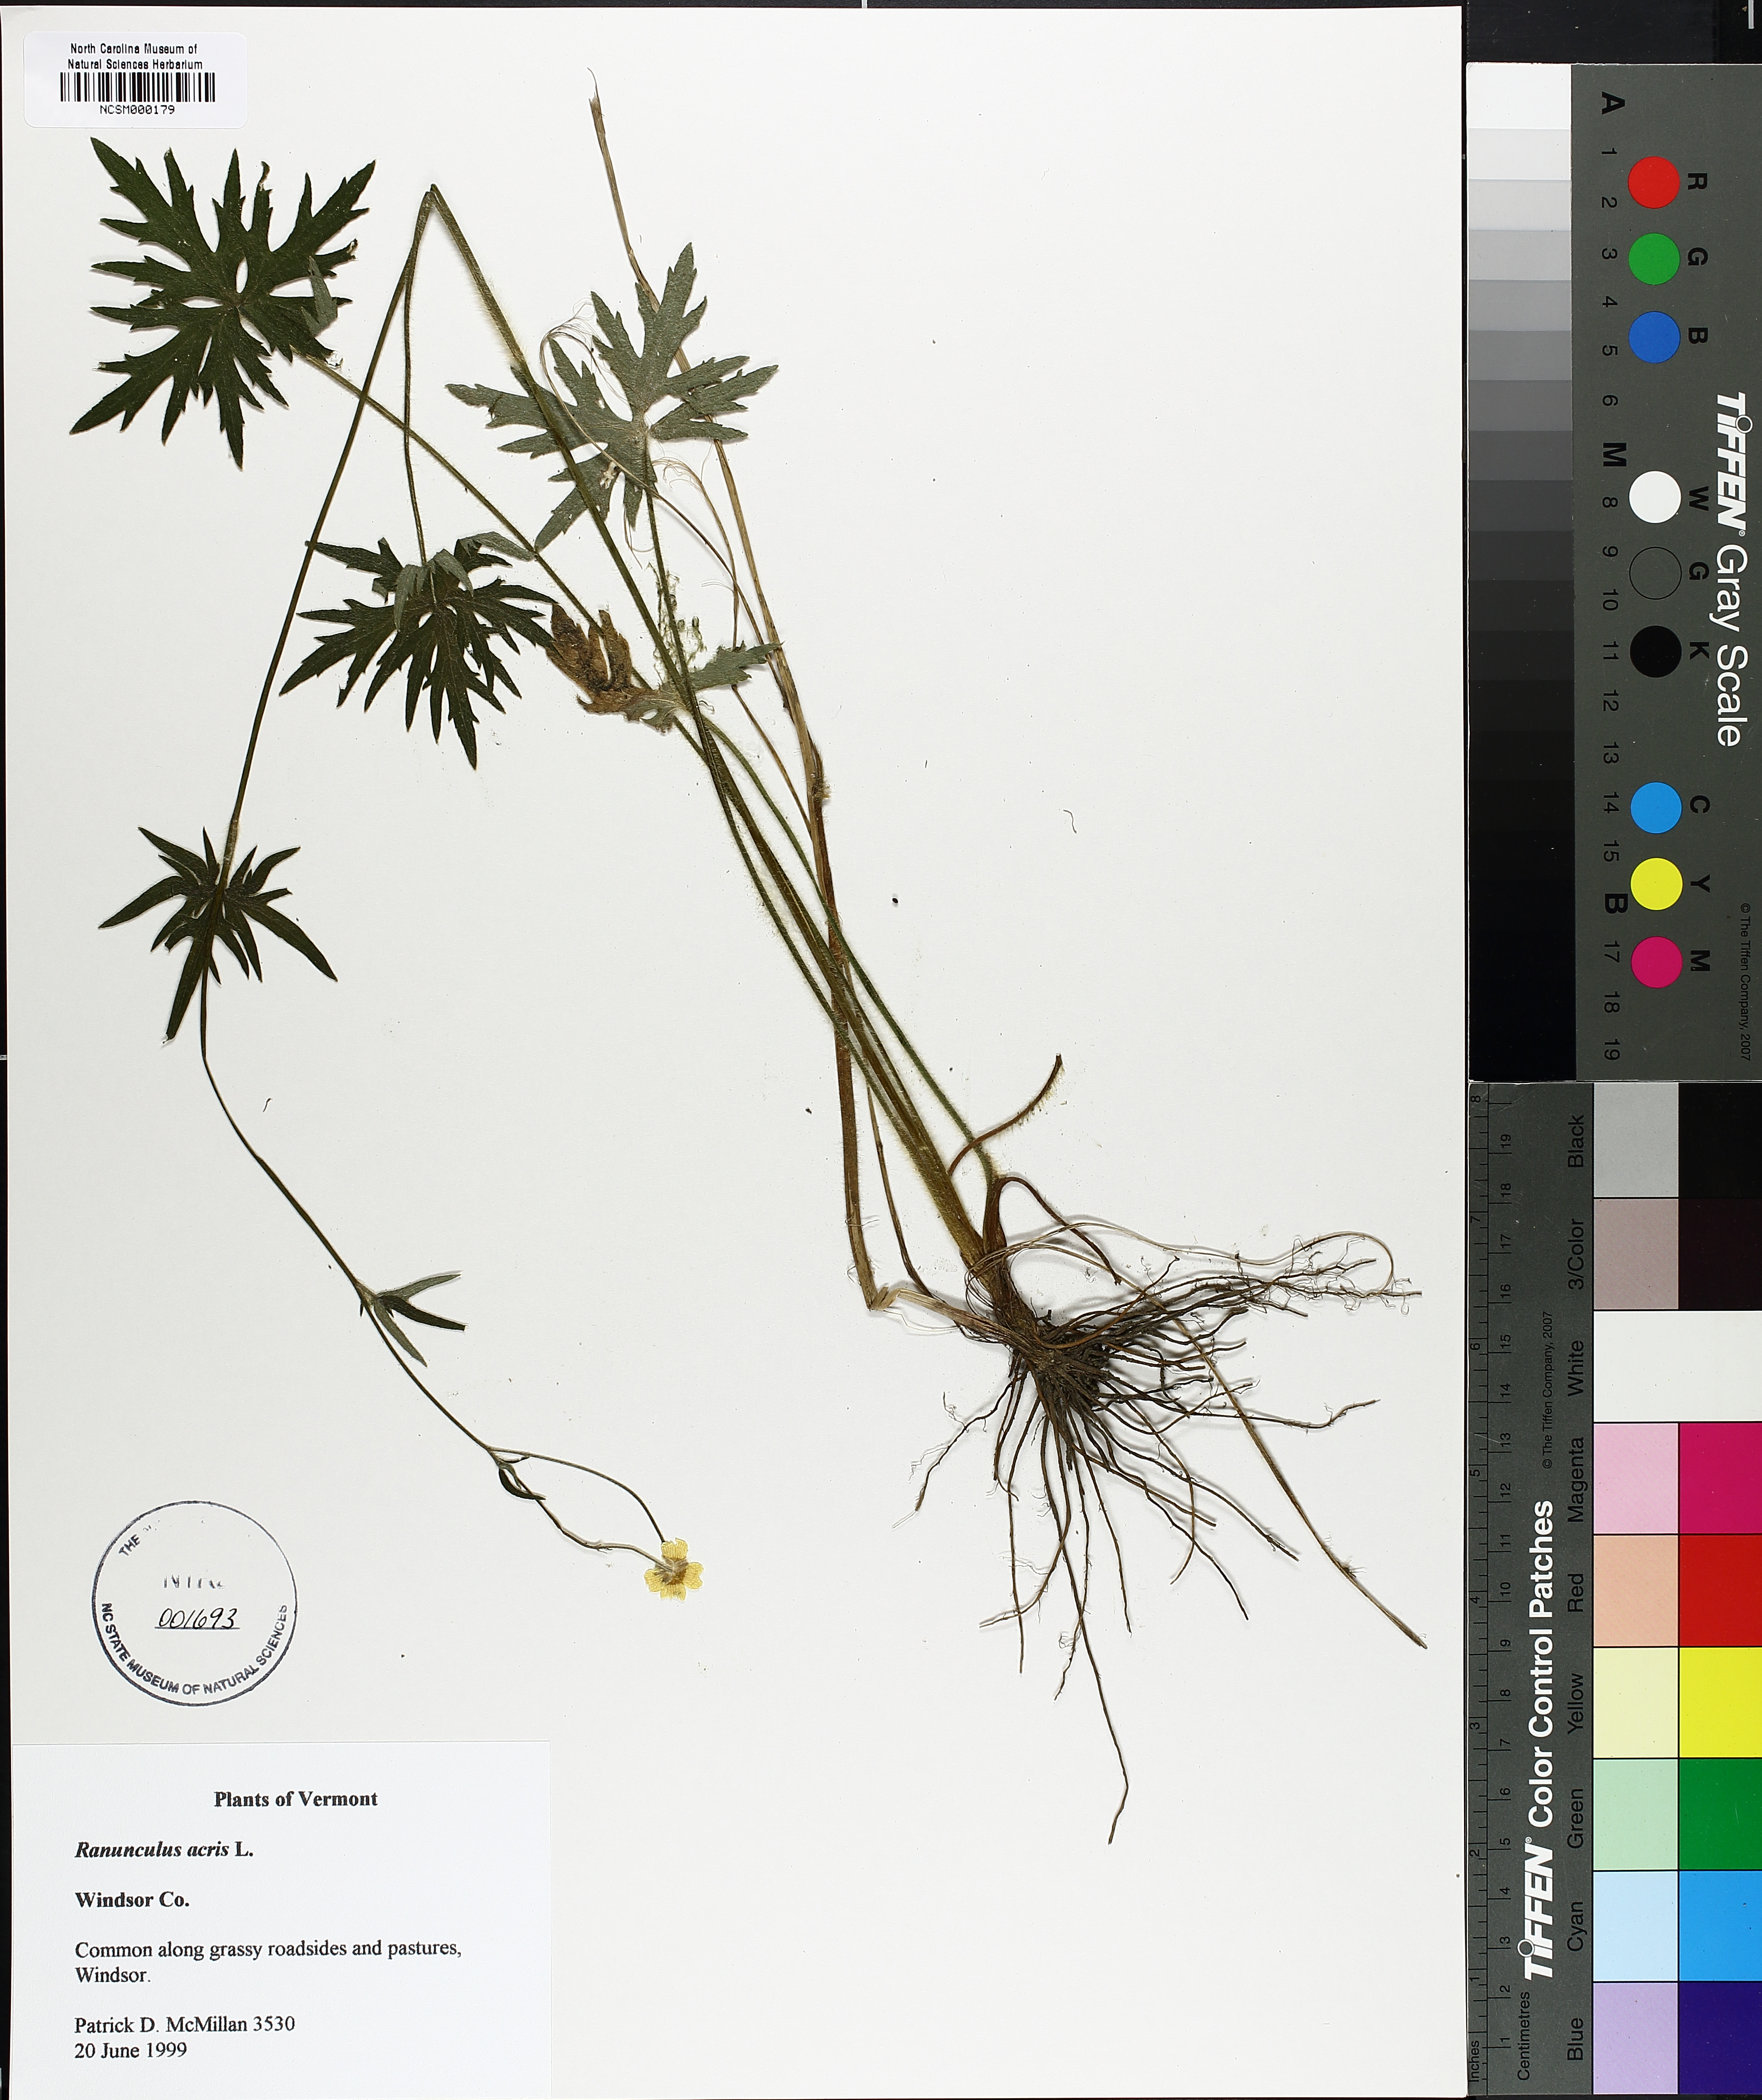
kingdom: Plantae
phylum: Tracheophyta
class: Magnoliopsida
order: Ranunculales
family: Ranunculaceae
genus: Ranunculus
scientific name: Ranunculus acris
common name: Meadow buttercup
